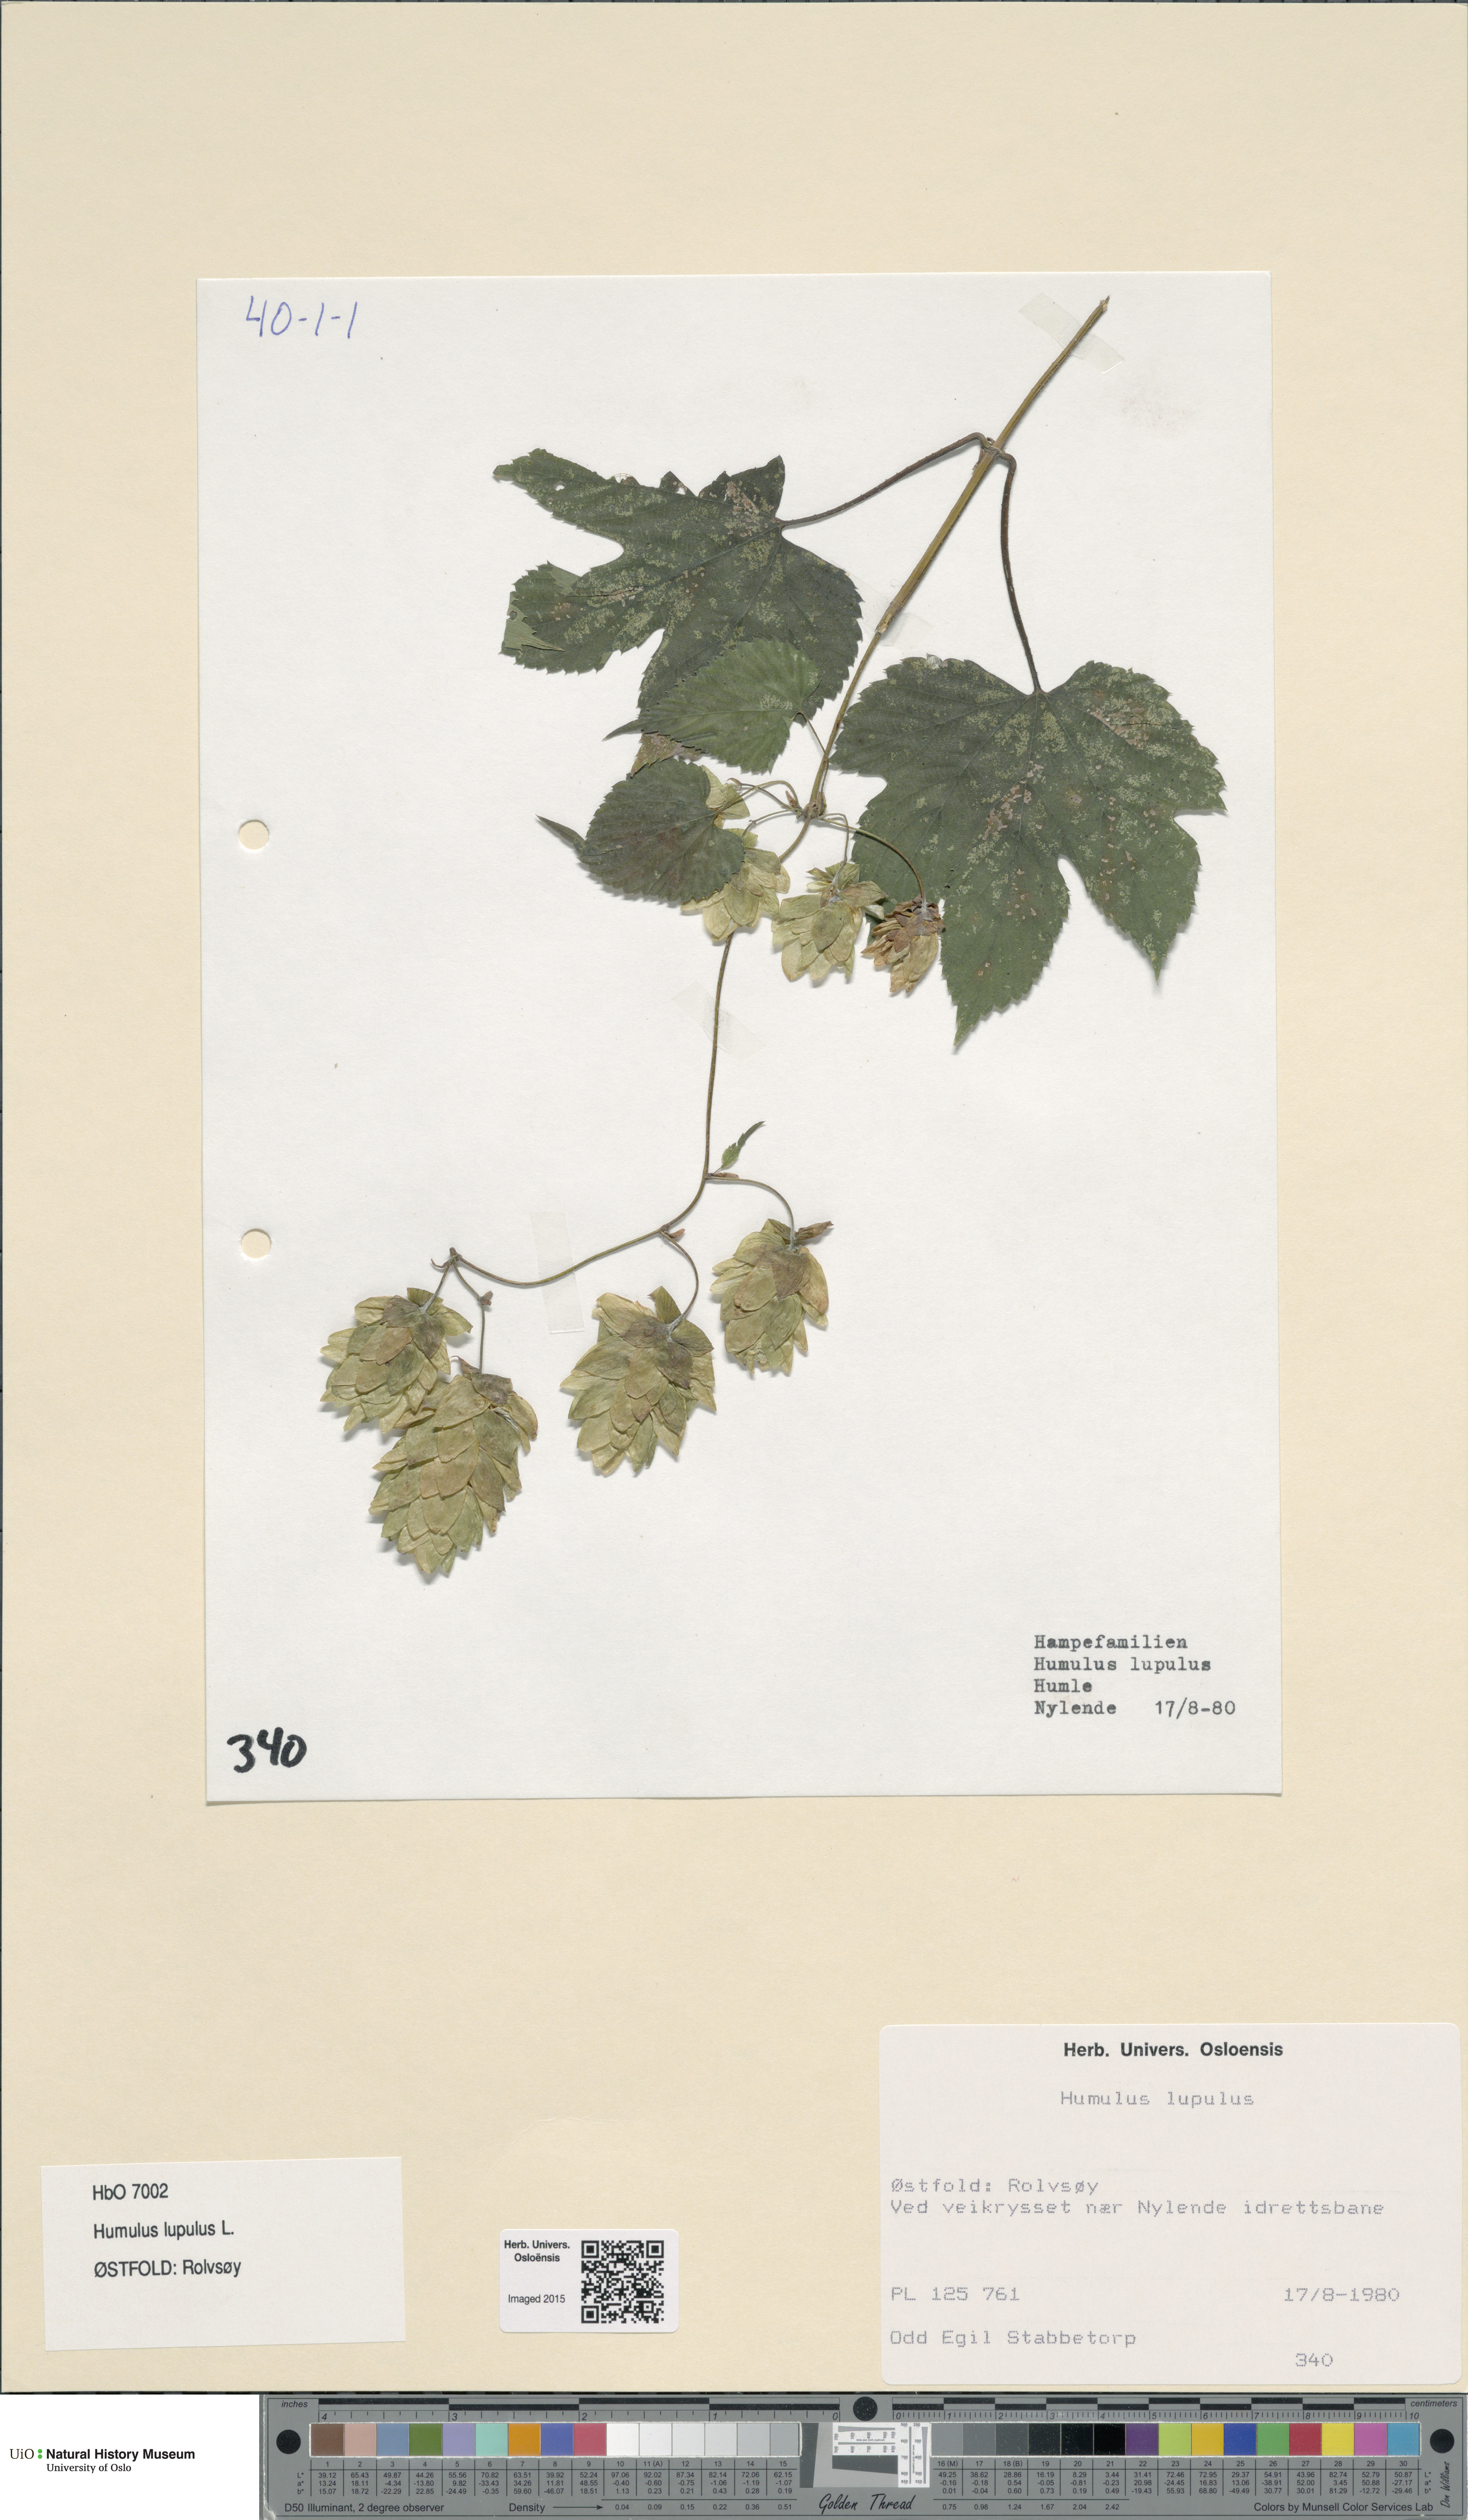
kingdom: Plantae
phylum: Tracheophyta
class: Magnoliopsida
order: Rosales
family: Cannabaceae
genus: Humulus
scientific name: Humulus lupulus
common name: Hop
